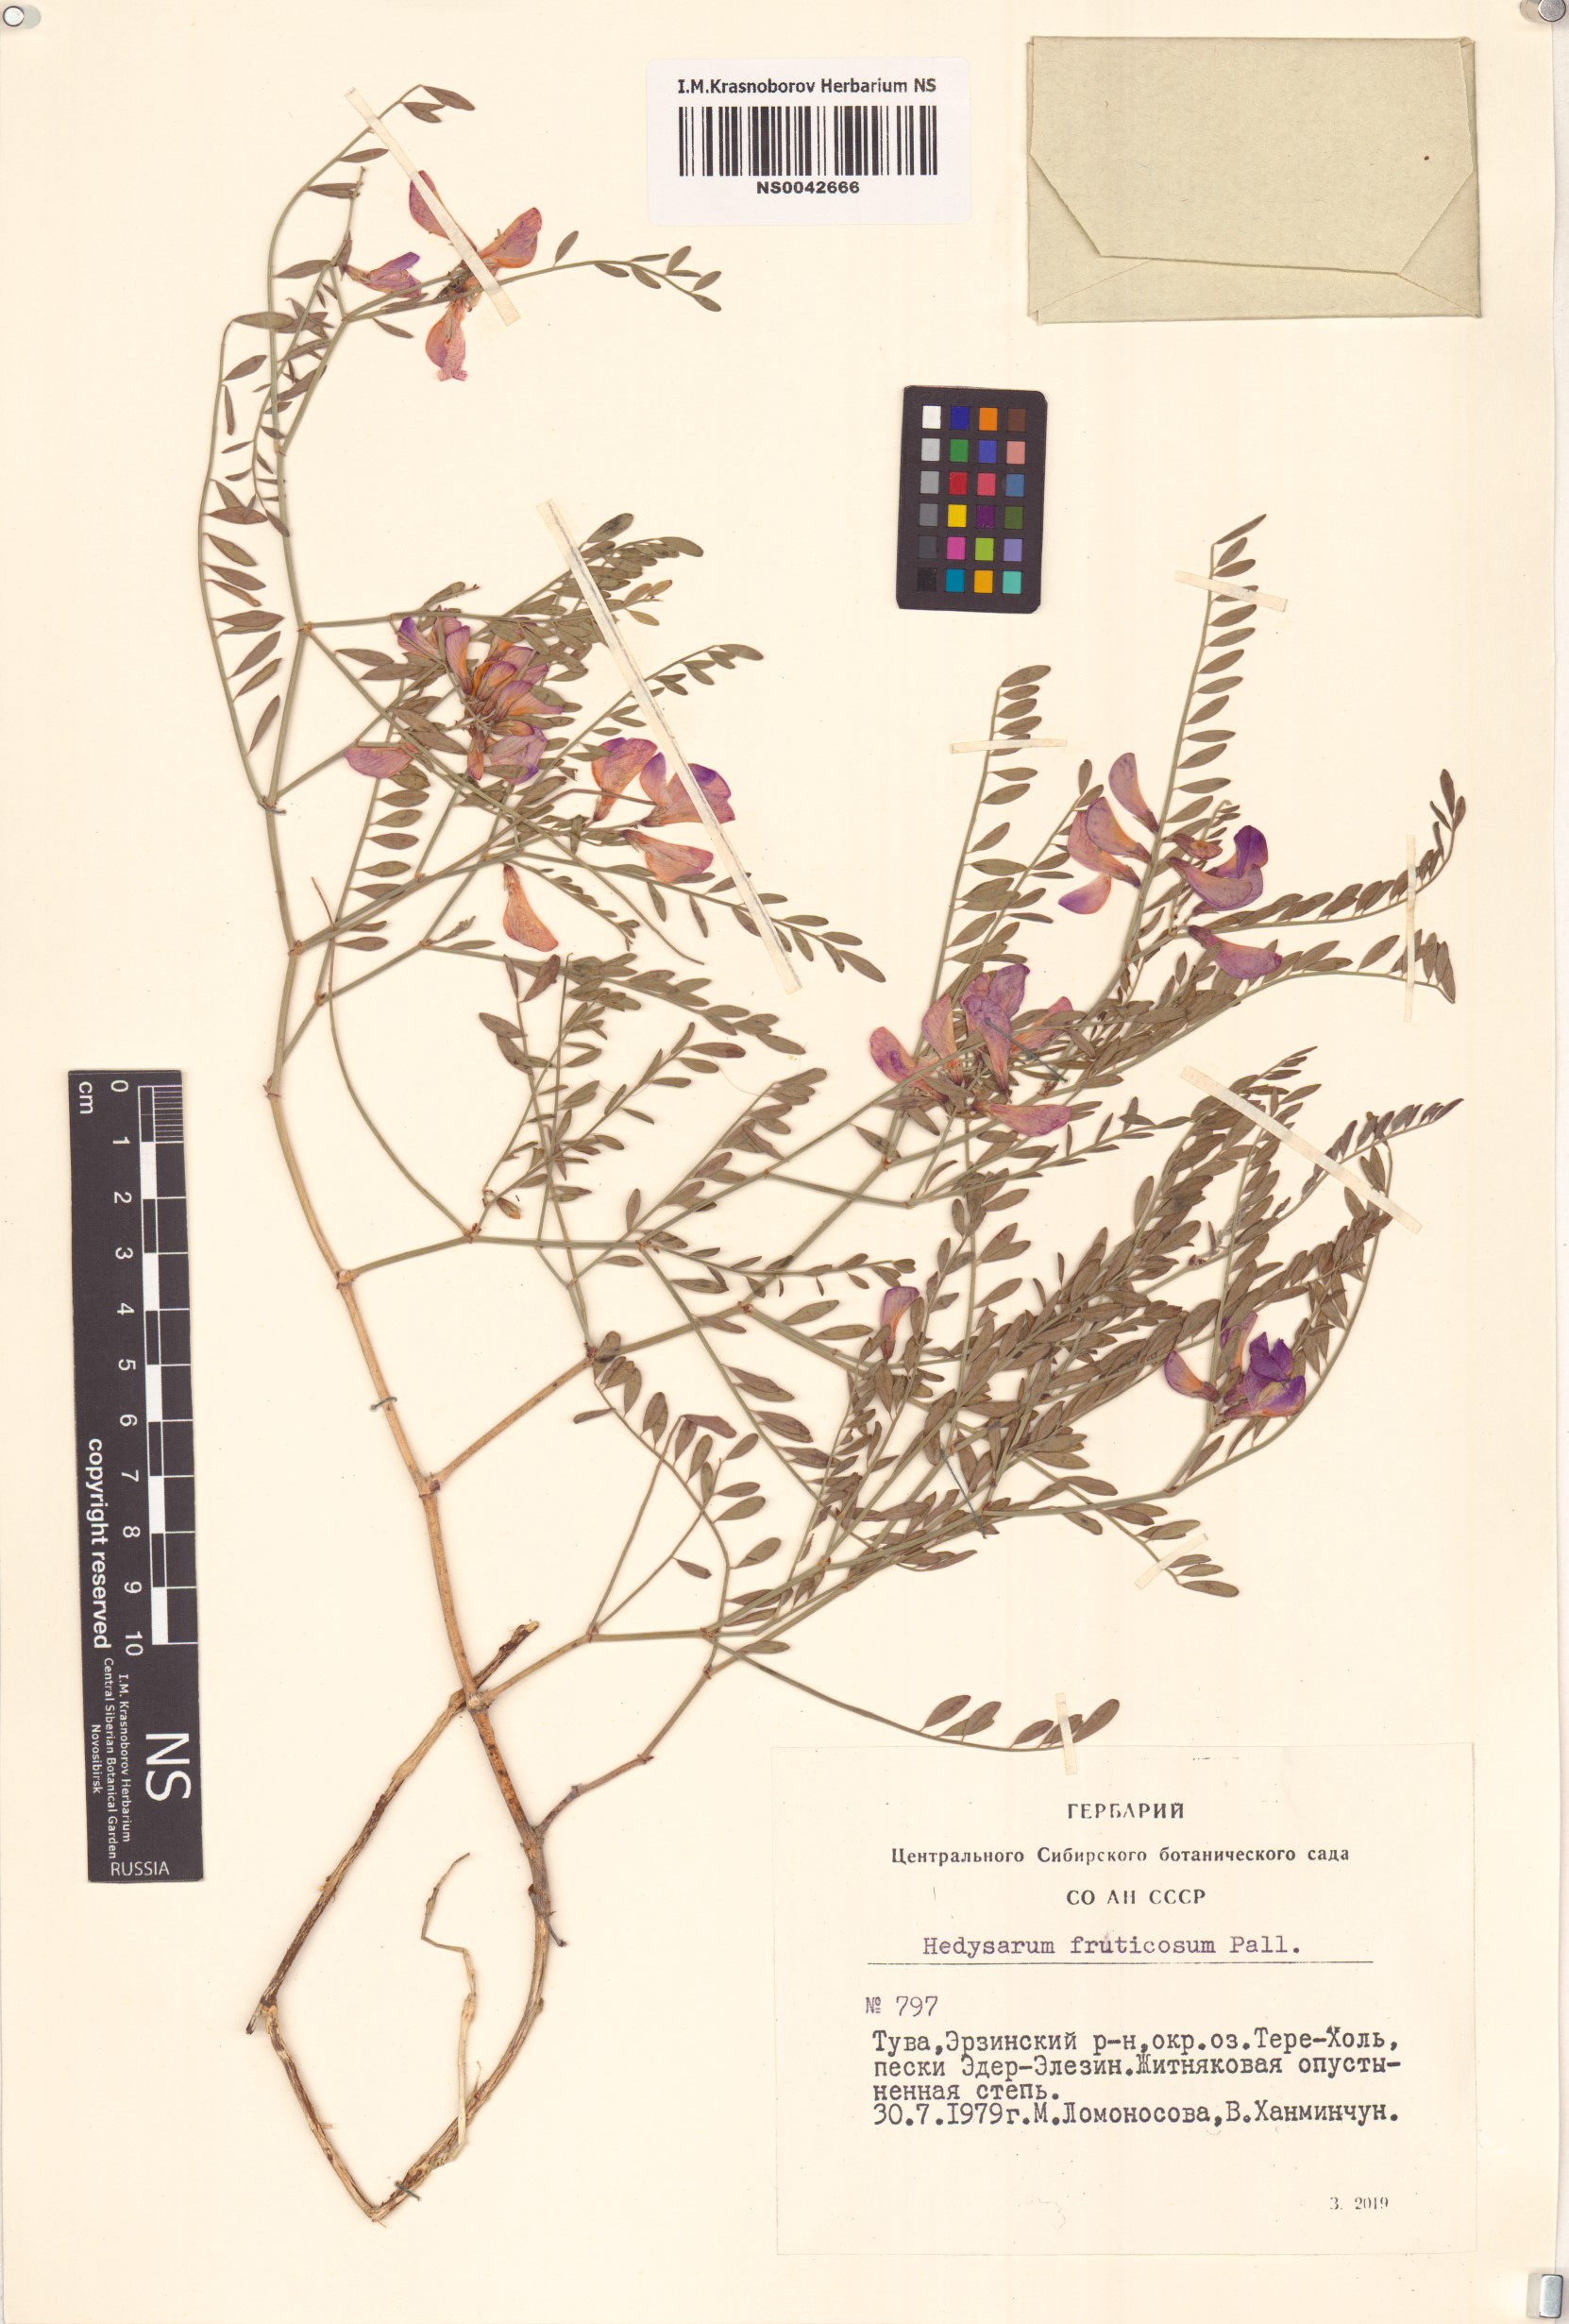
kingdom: Plantae
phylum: Tracheophyta
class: Magnoliopsida
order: Fabales
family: Fabaceae
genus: Corethrodendron
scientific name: Corethrodendron fruticosum
